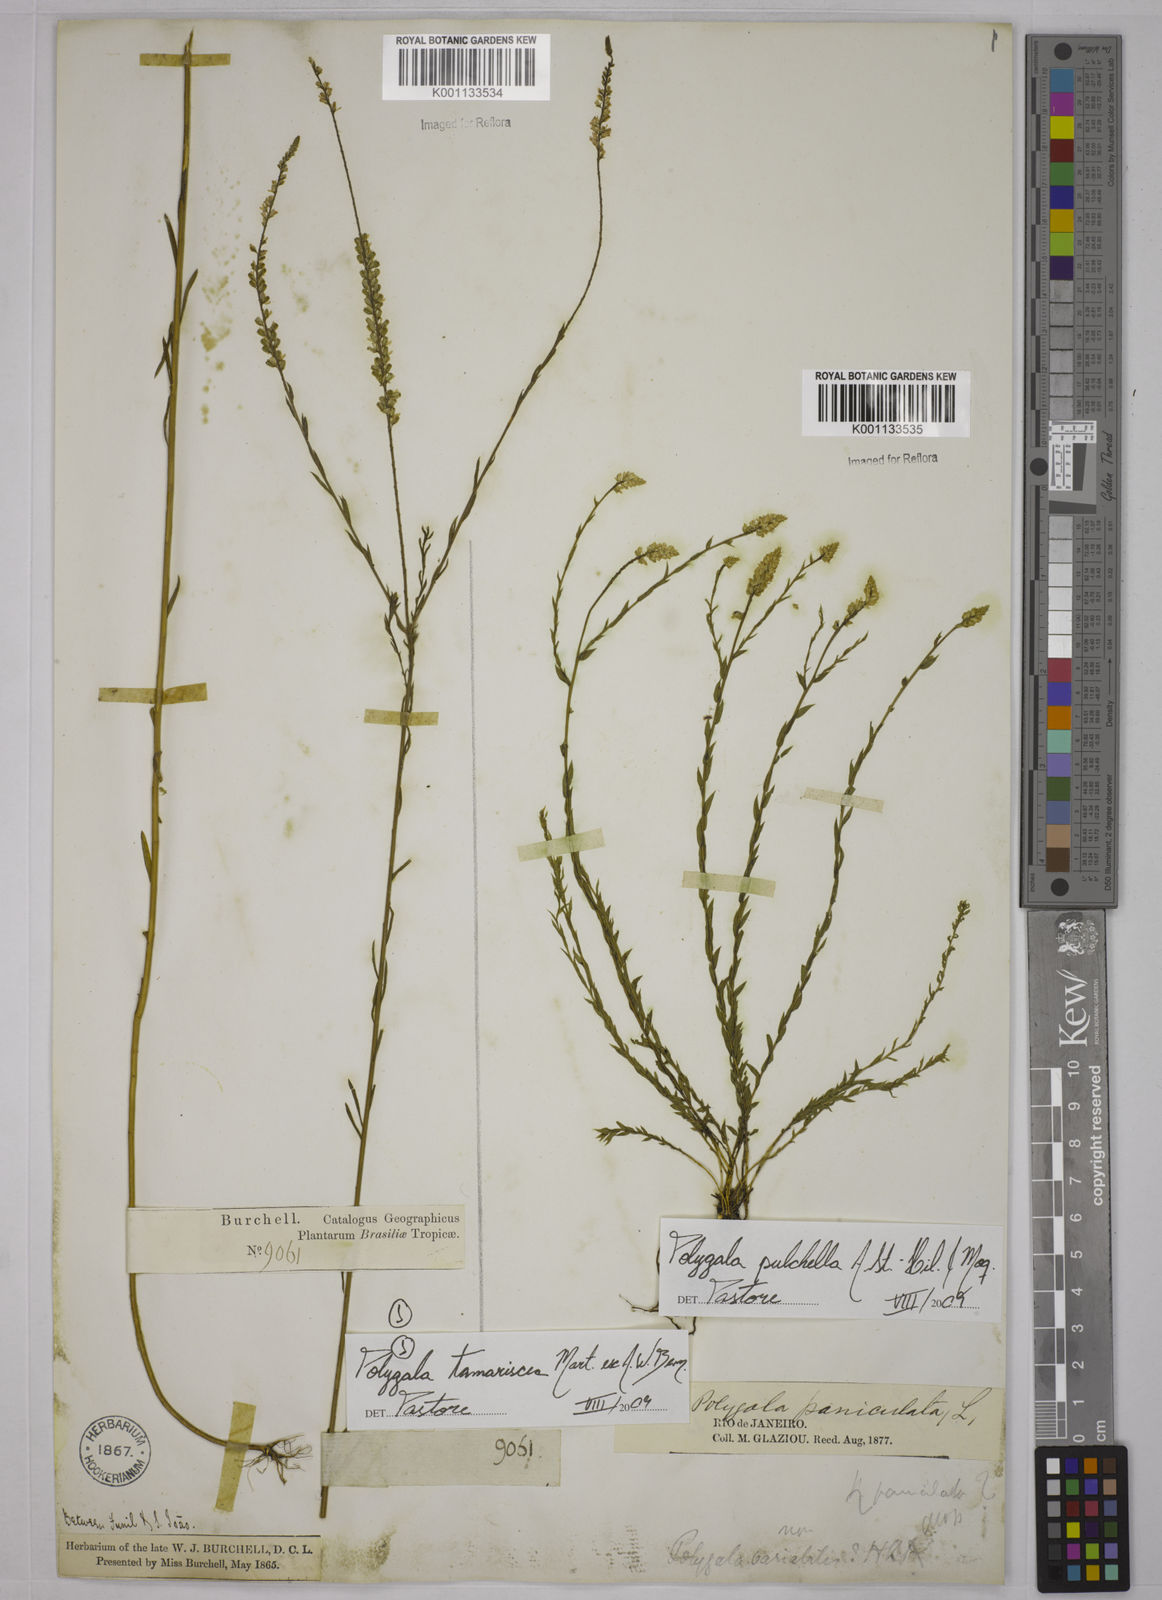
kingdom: Plantae
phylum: Tracheophyta
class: Magnoliopsida
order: Fabales
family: Polygalaceae
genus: Polygala
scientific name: Polygala tamariscea
